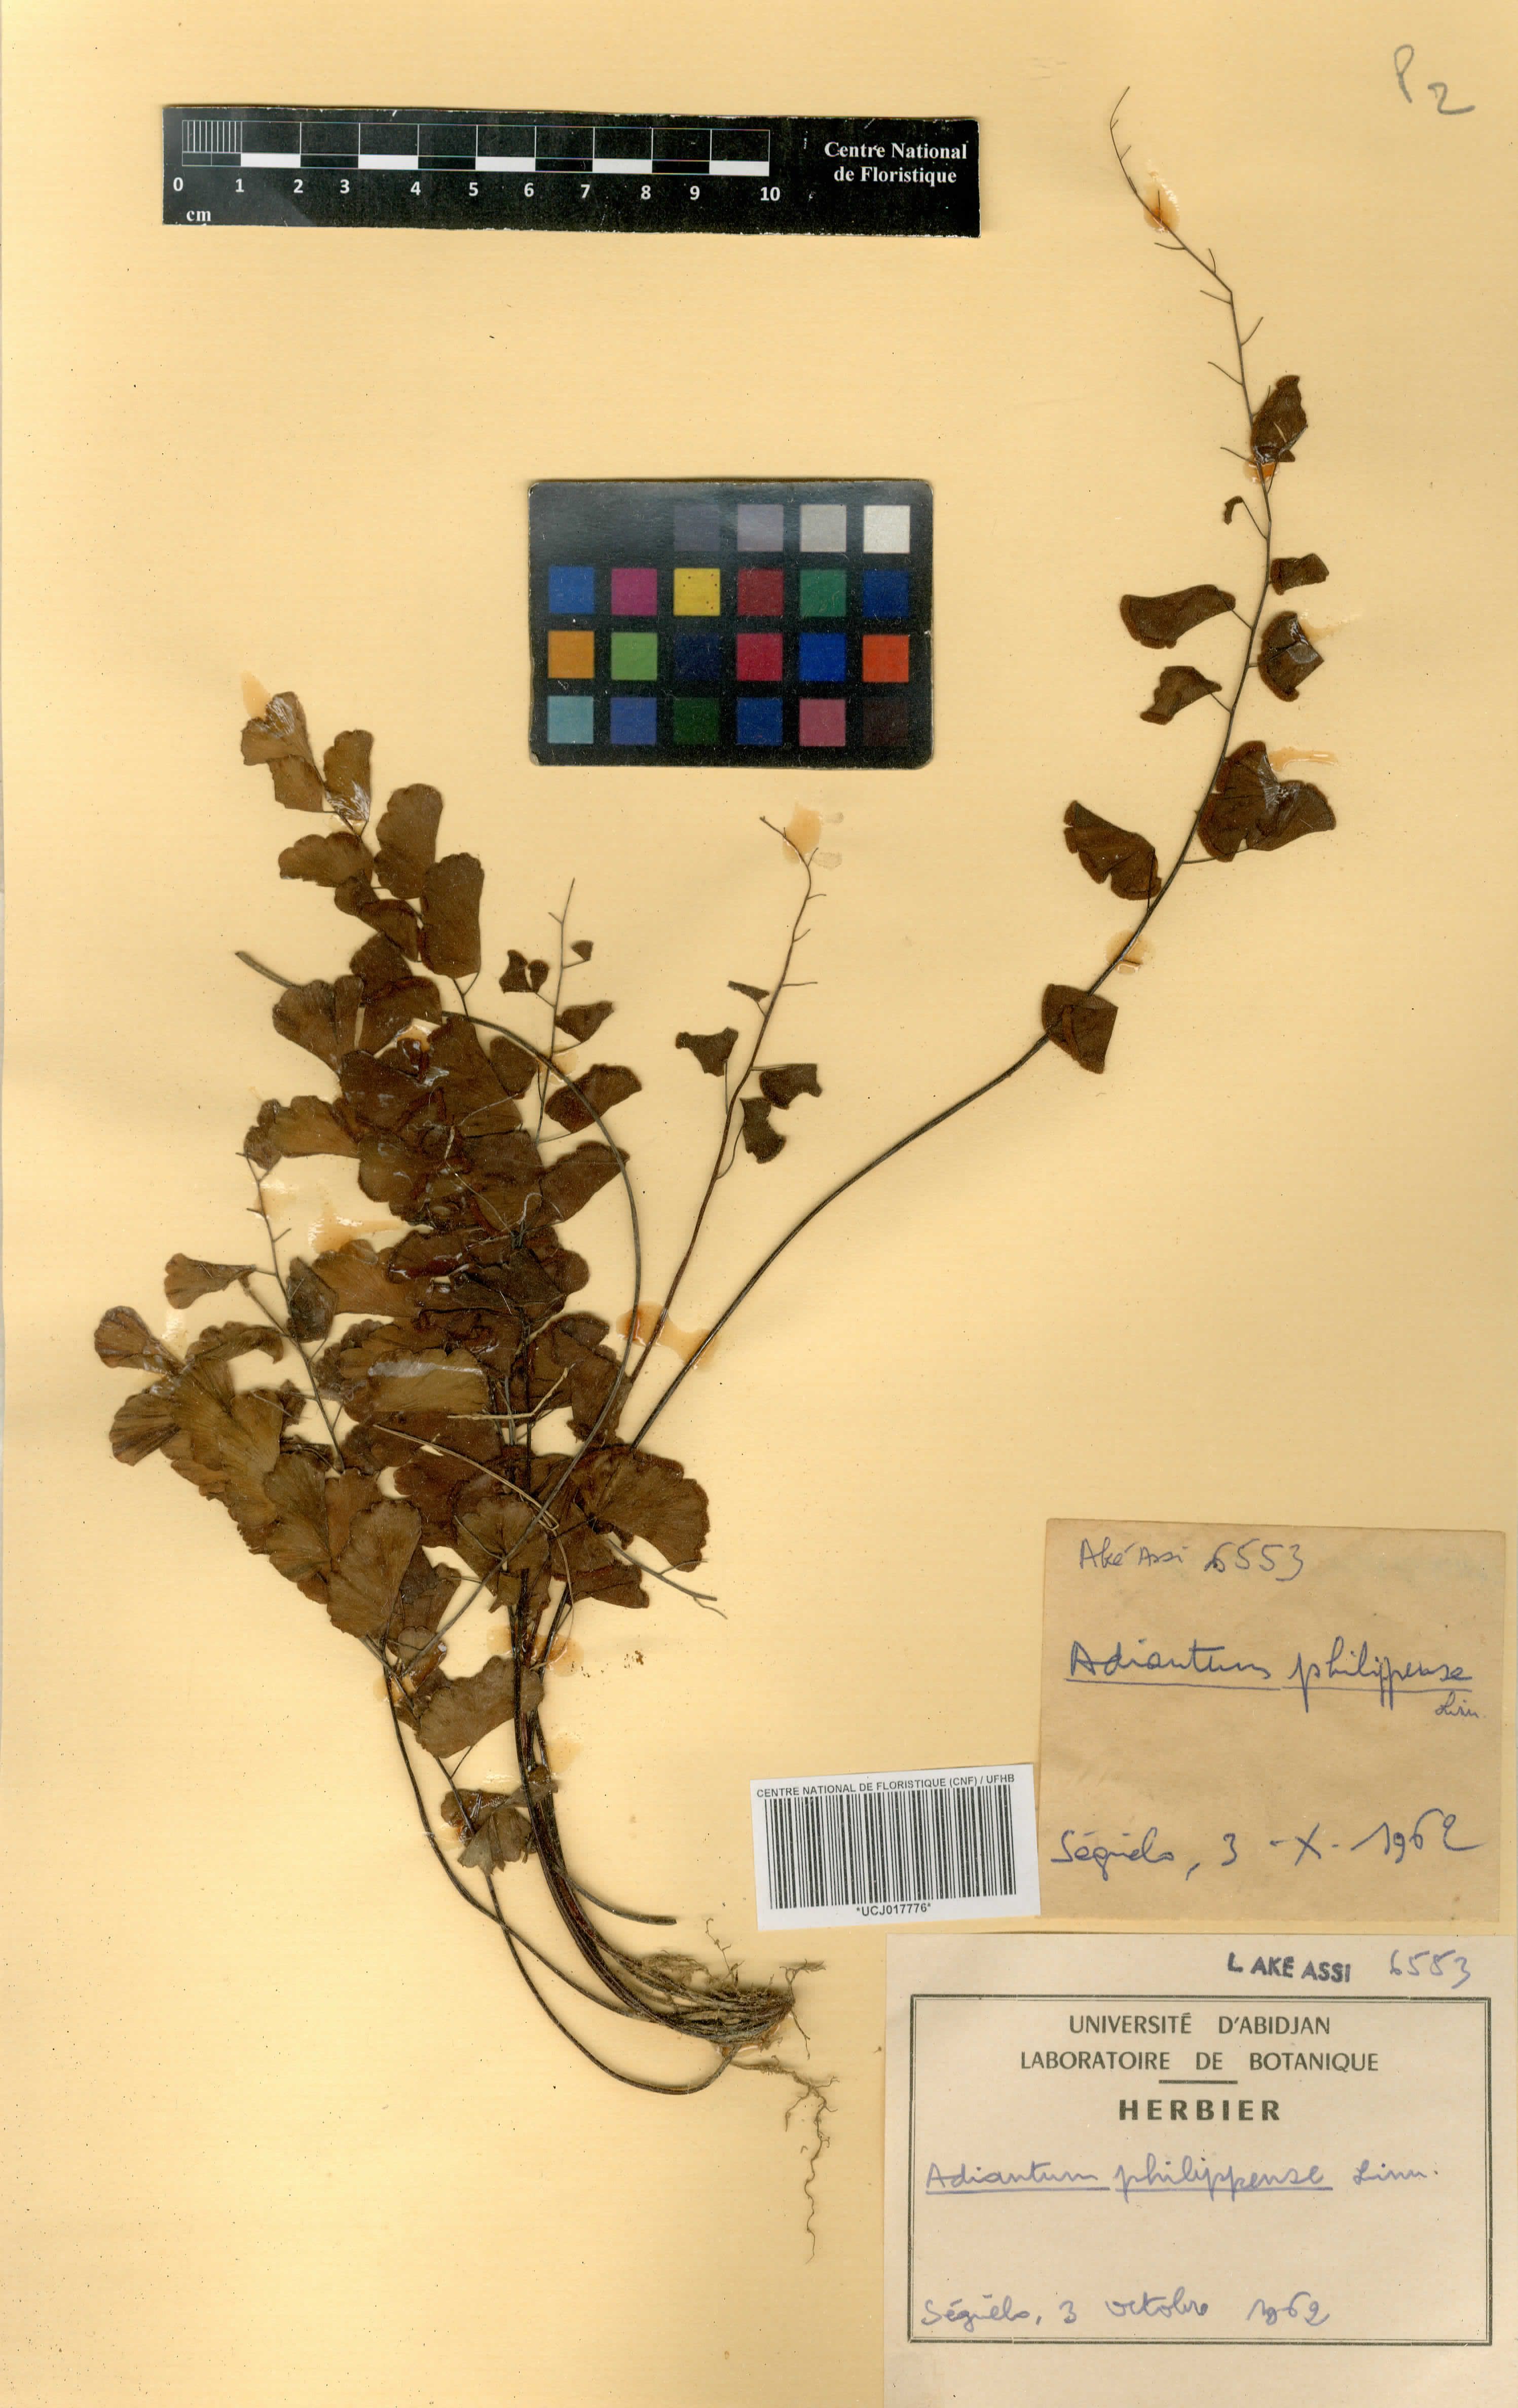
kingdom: Plantae
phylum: Tracheophyta
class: Polypodiopsida
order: Polypodiales
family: Pteridaceae
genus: Adiantum
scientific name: Adiantum philippense
